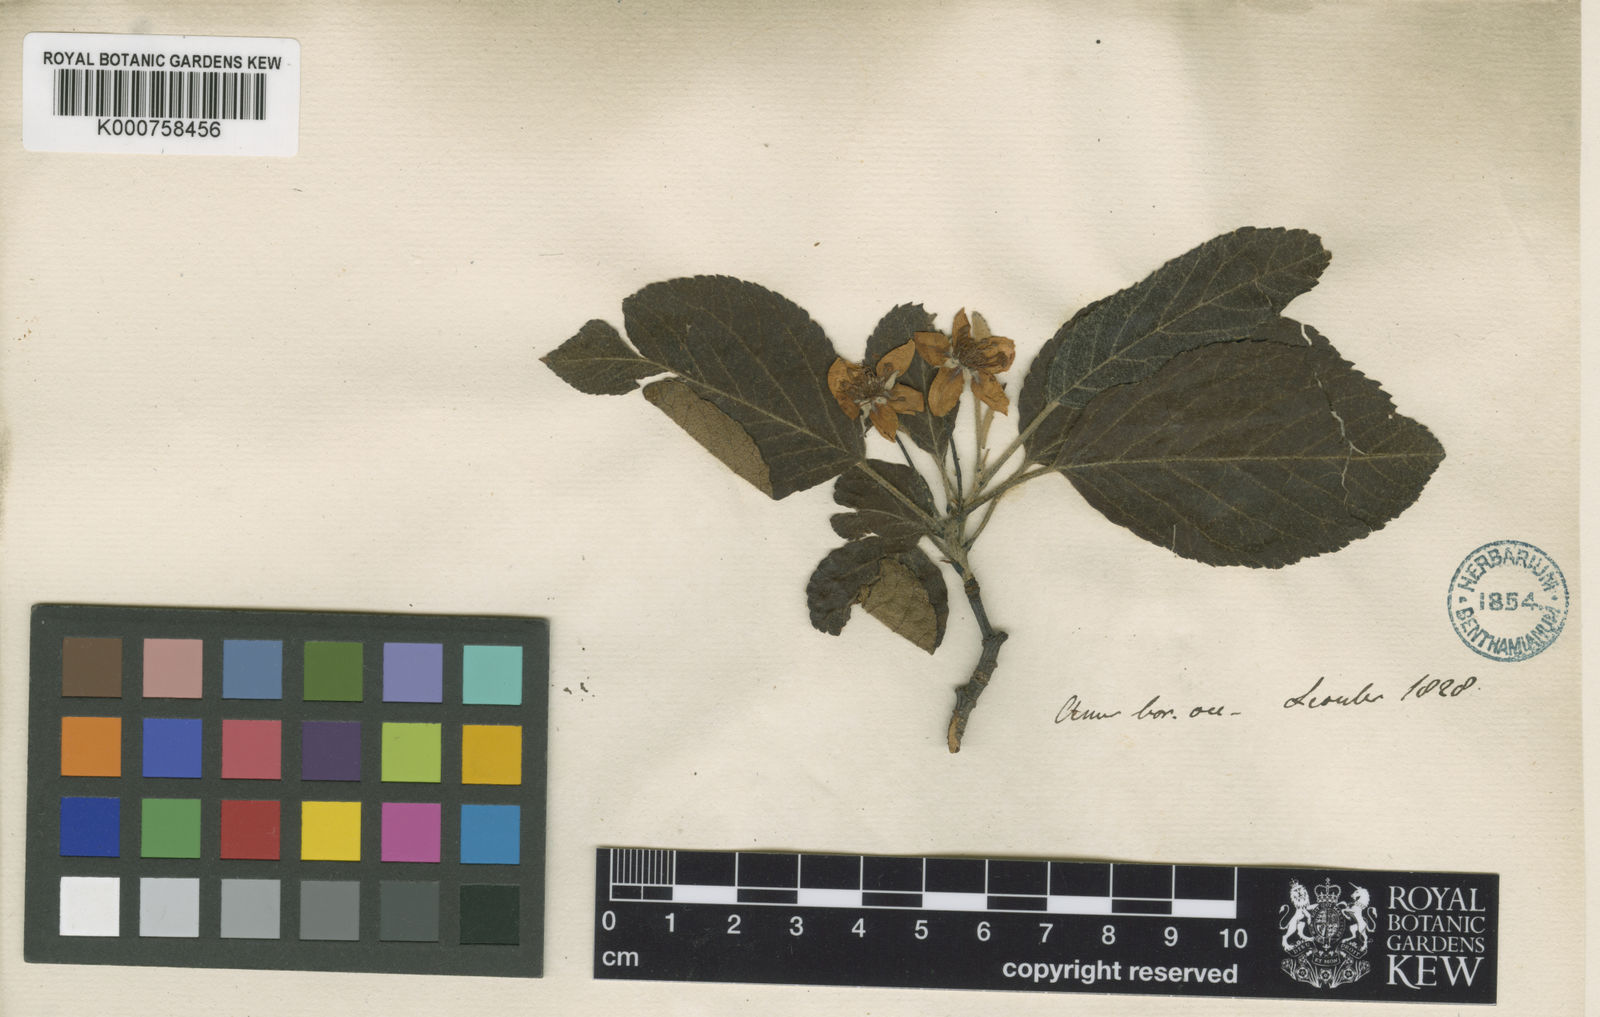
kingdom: Plantae
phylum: Tracheophyta
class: Magnoliopsida
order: Rosales
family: Rosaceae
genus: Malus
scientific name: Malus fusca
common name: Oregon crab apple
